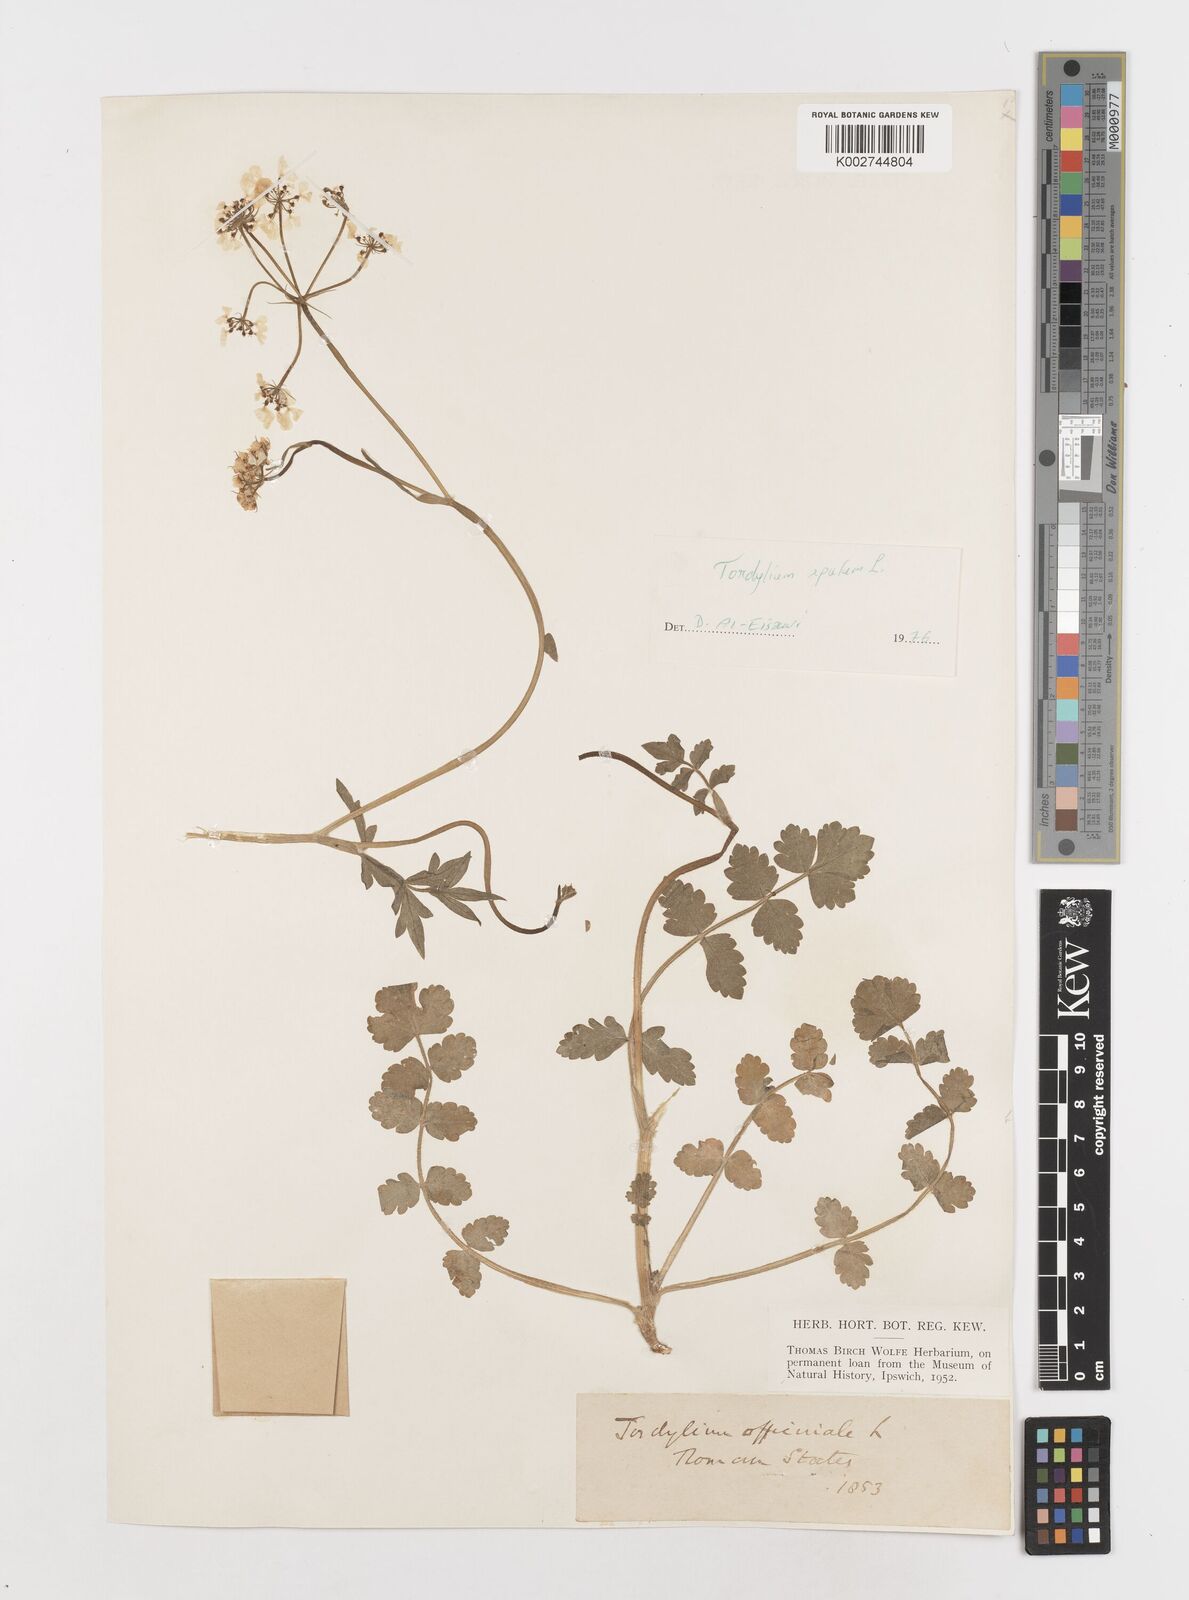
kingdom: Plantae
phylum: Tracheophyta
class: Magnoliopsida
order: Apiales
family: Apiaceae
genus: Tordylium
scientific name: Tordylium apulum
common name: Mediterranean hartwort
